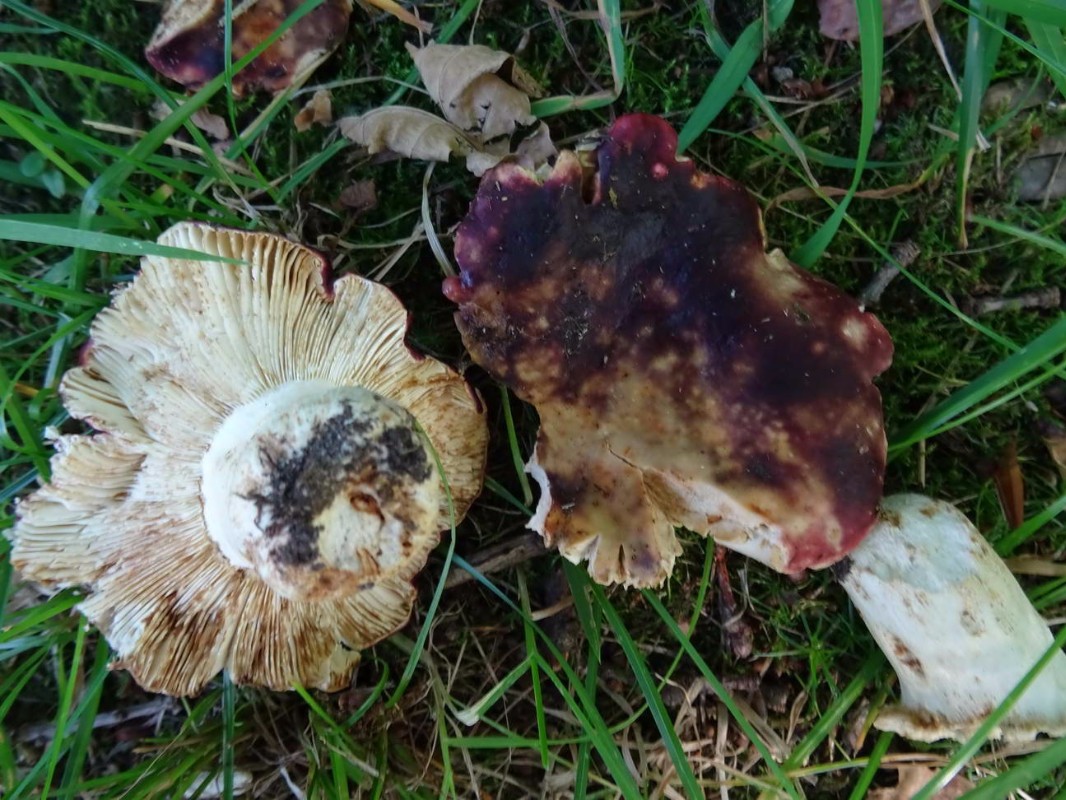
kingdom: Fungi
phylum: Basidiomycota
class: Agaricomycetes
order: Russulales
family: Russulaceae
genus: Russula
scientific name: Russula atropurpurea
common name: purpurbroget skørhat
